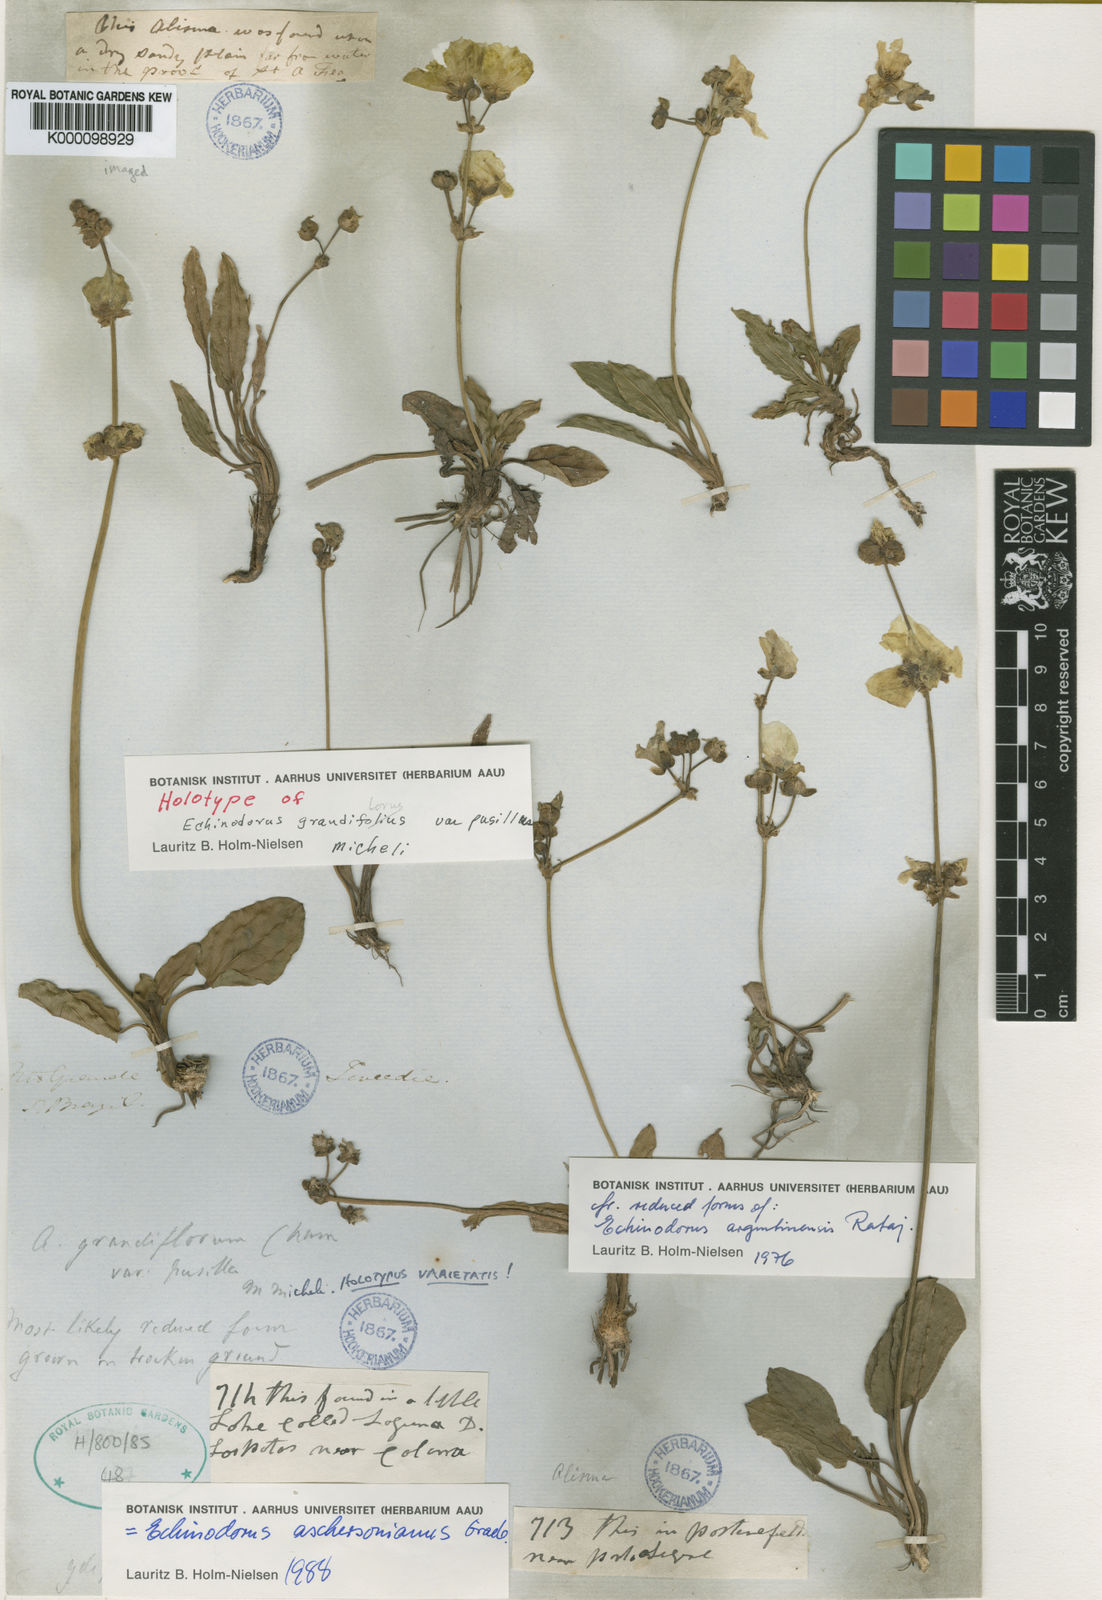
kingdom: Plantae
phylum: Tracheophyta
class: Liliopsida
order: Alismatales
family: Alismataceae
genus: Aquarius
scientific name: Aquarius uruguayensis
